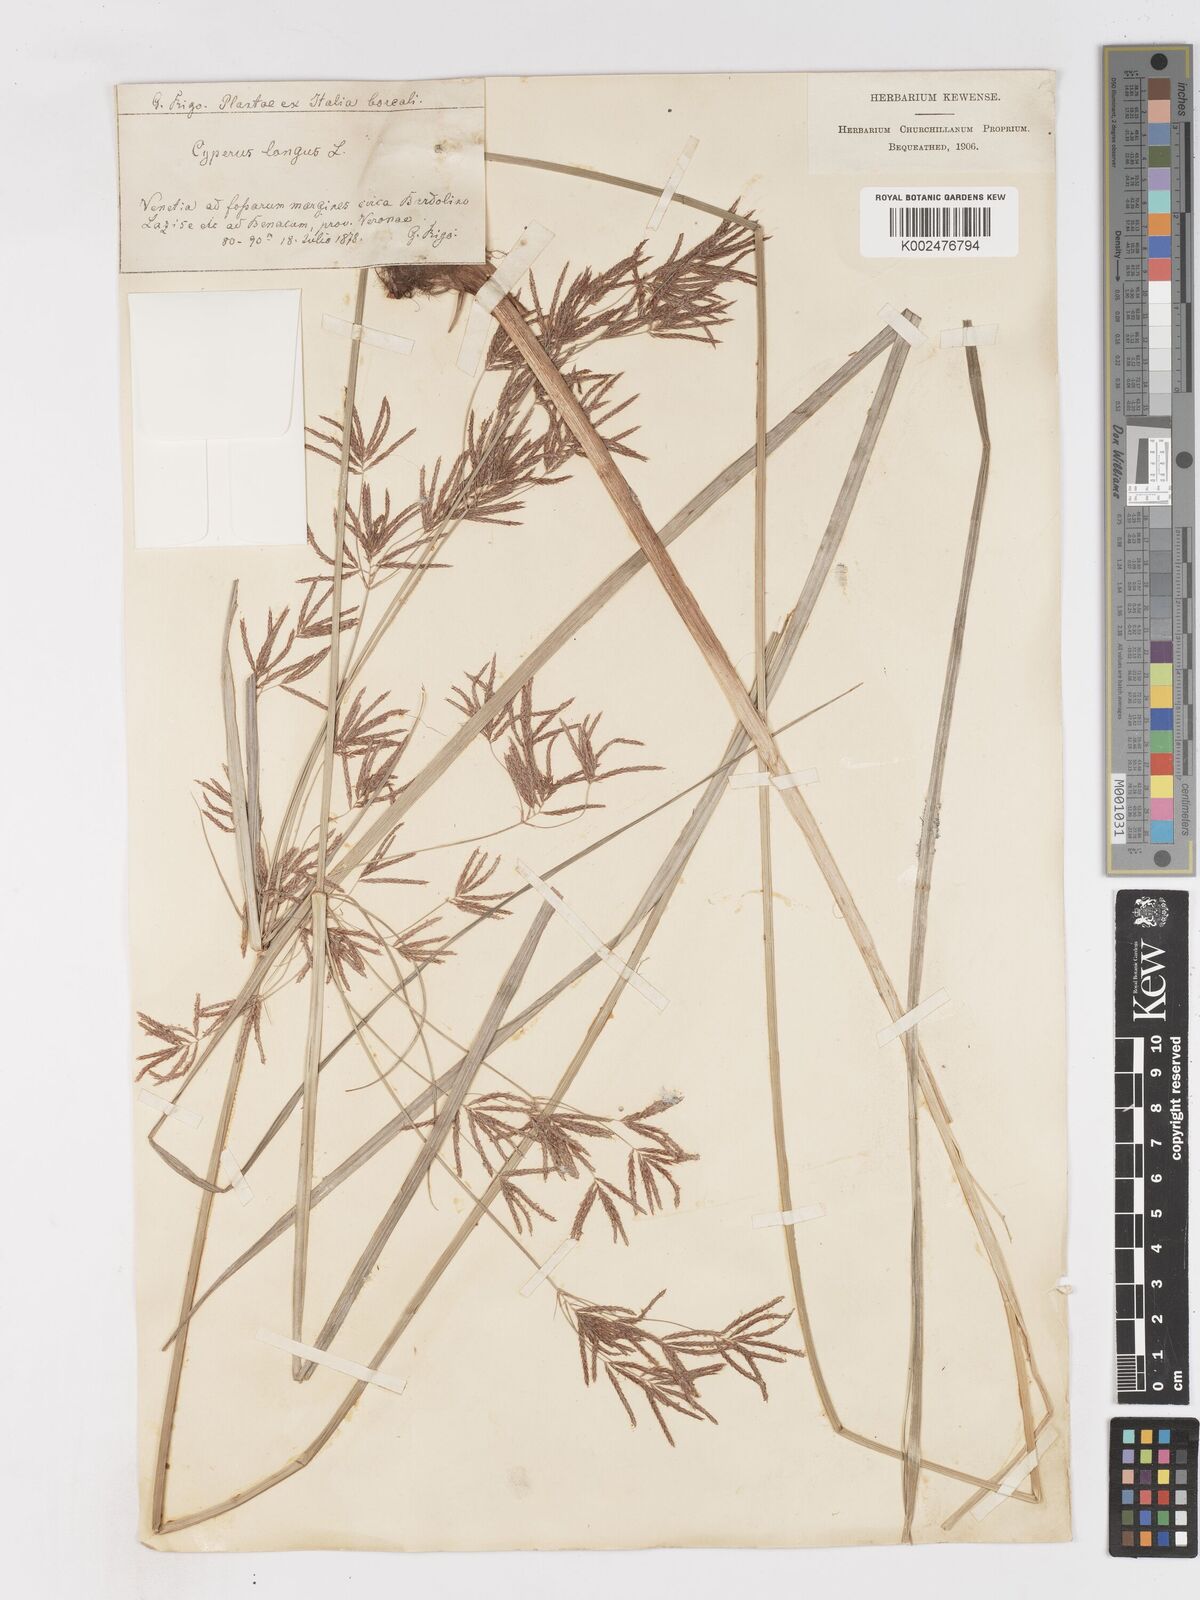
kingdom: Plantae
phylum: Tracheophyta
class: Liliopsida
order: Poales
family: Cyperaceae
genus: Cyperus
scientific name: Cyperus longus
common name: Galingale
